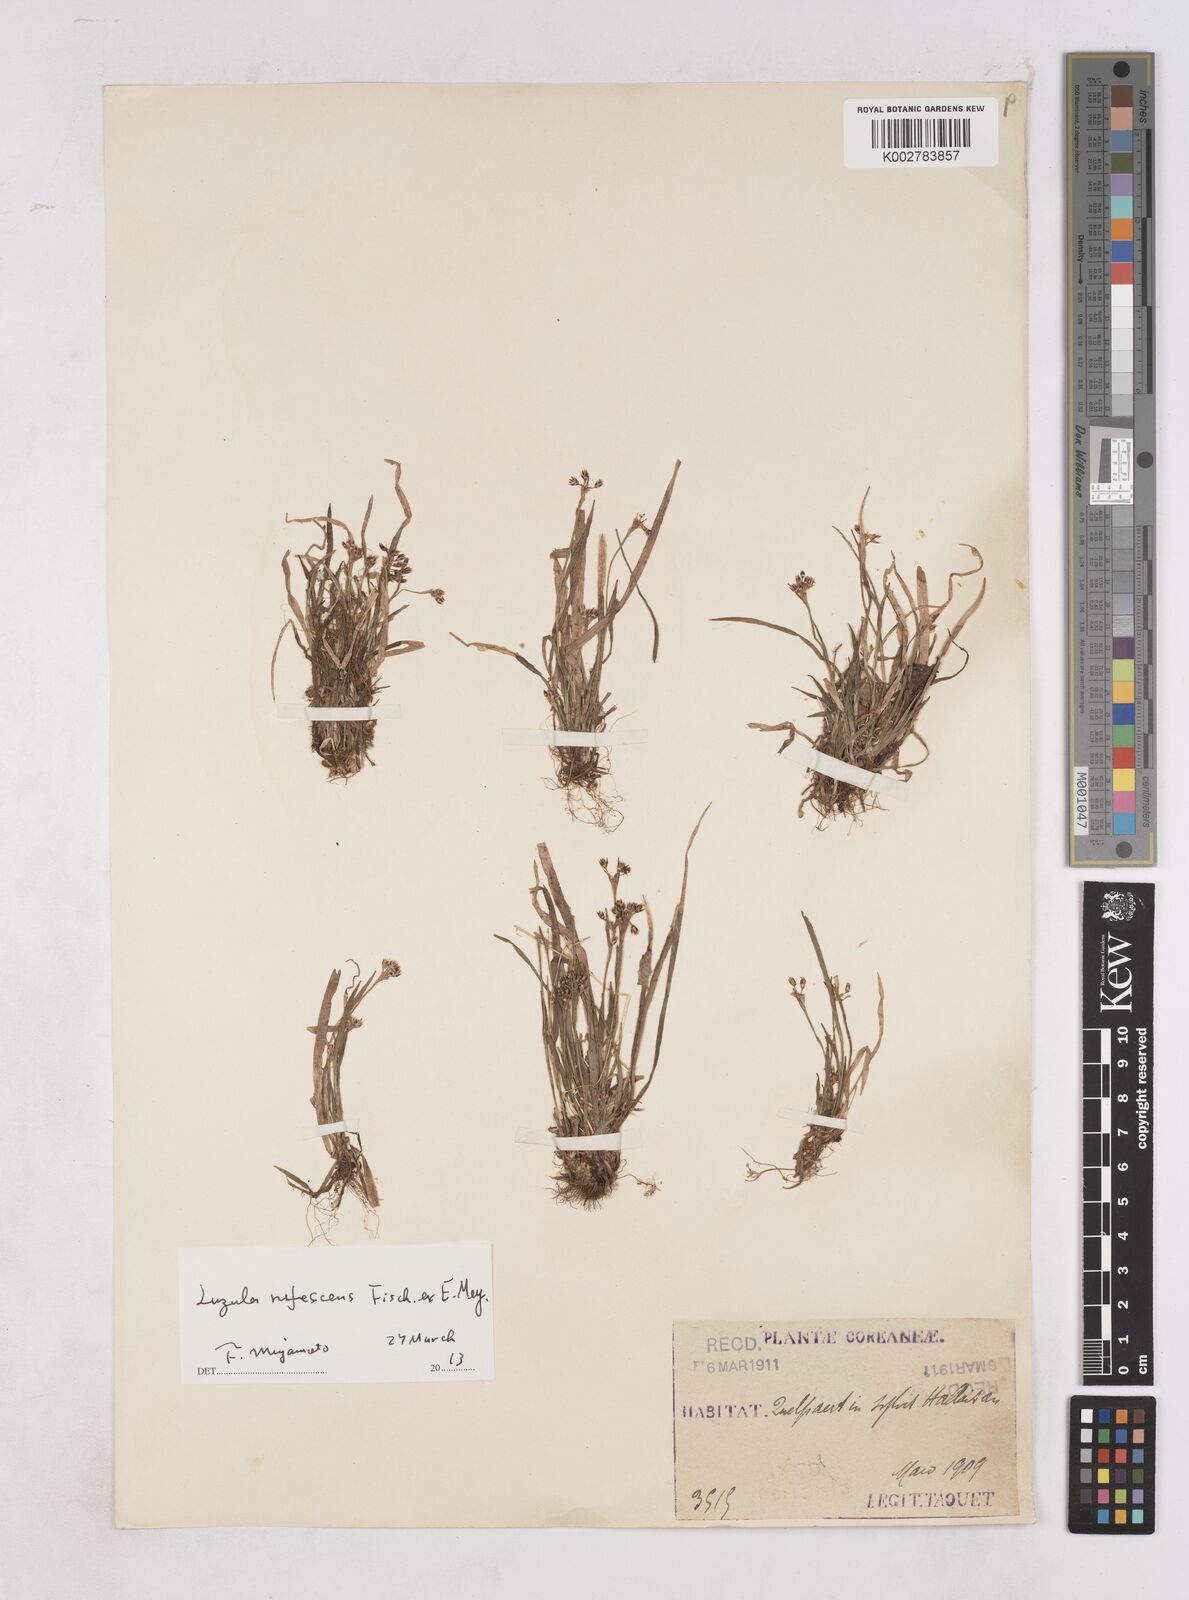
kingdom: Plantae
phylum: Tracheophyta
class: Liliopsida
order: Poales
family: Juncaceae
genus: Luzula
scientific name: Luzula rufescens
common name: Reddish woodrush
